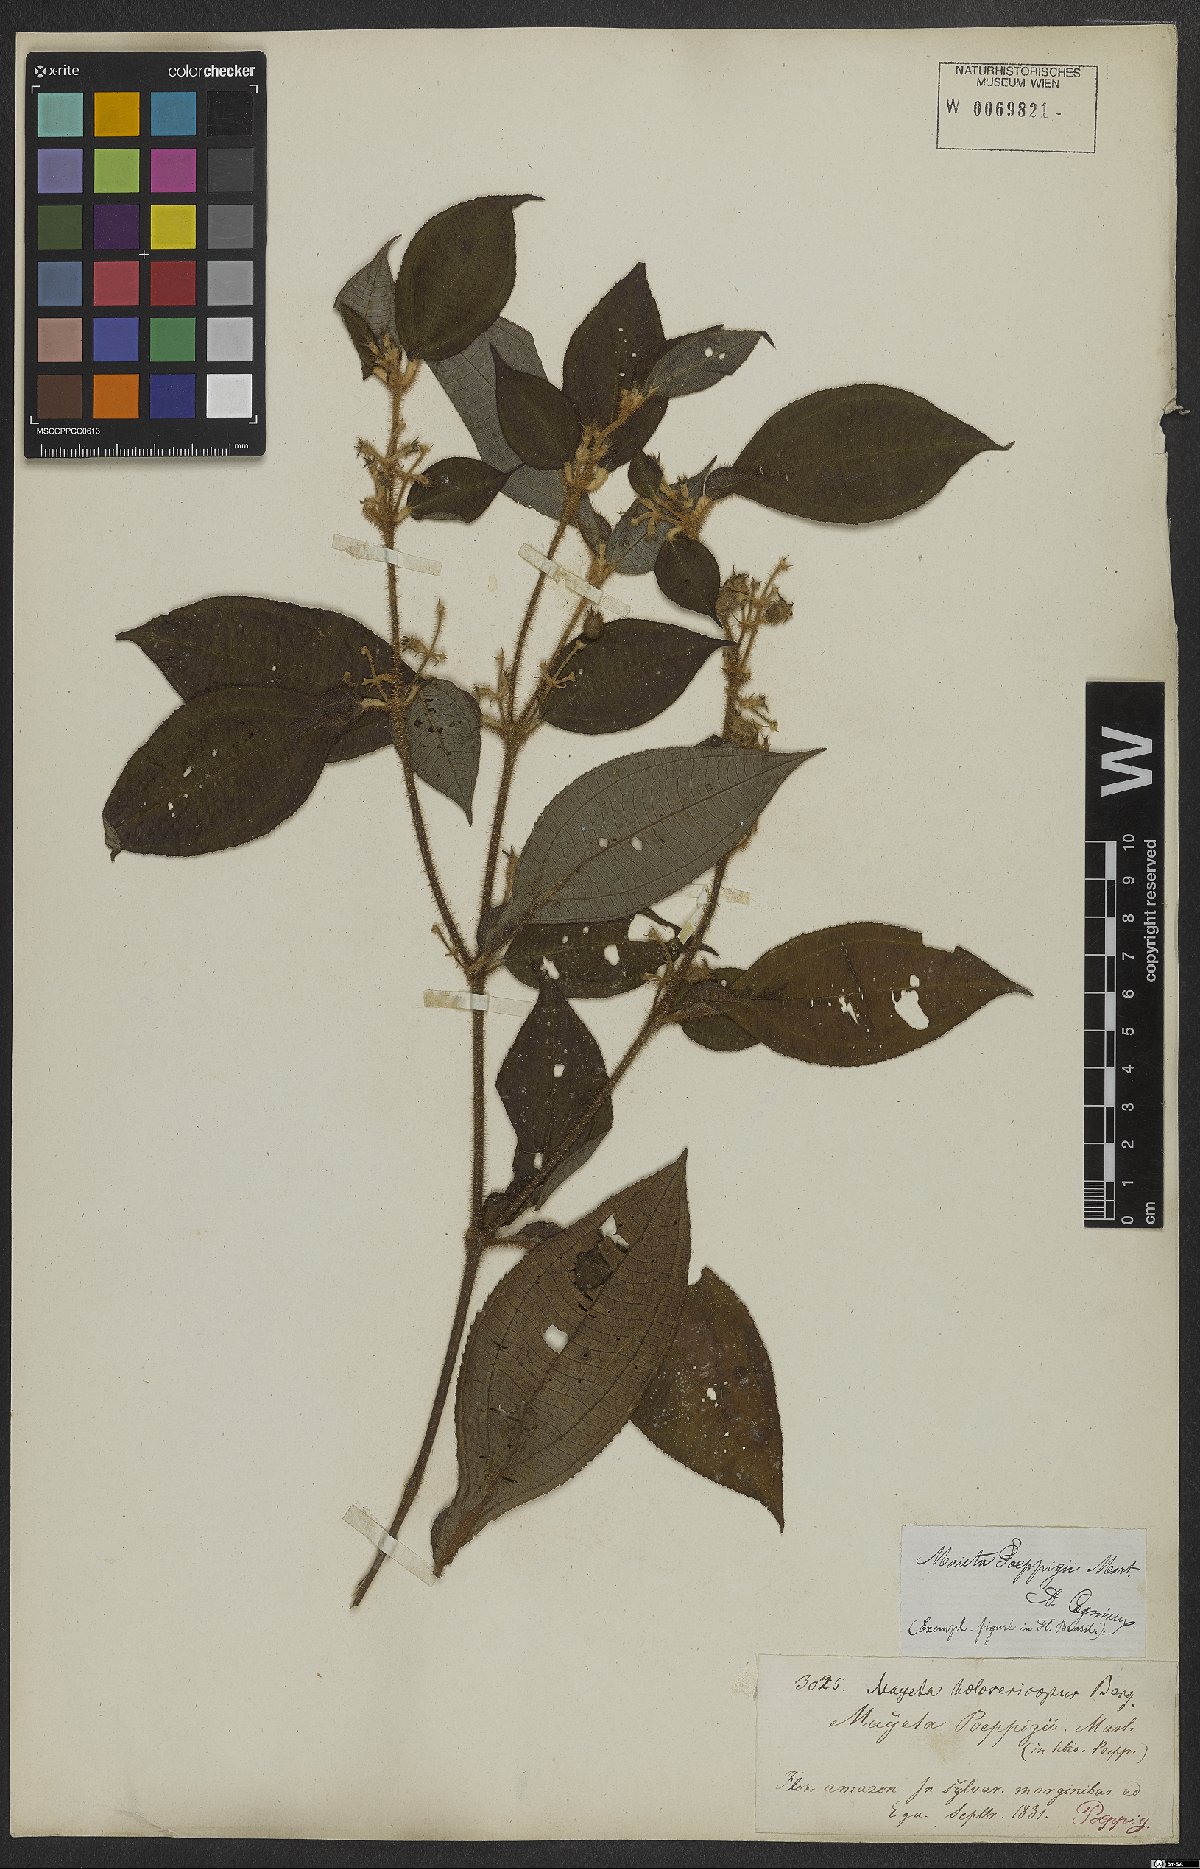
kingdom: Plantae
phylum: Tracheophyta
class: Magnoliopsida
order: Myrtales
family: Melastomataceae
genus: Miconia
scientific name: Miconia alternidomatia
